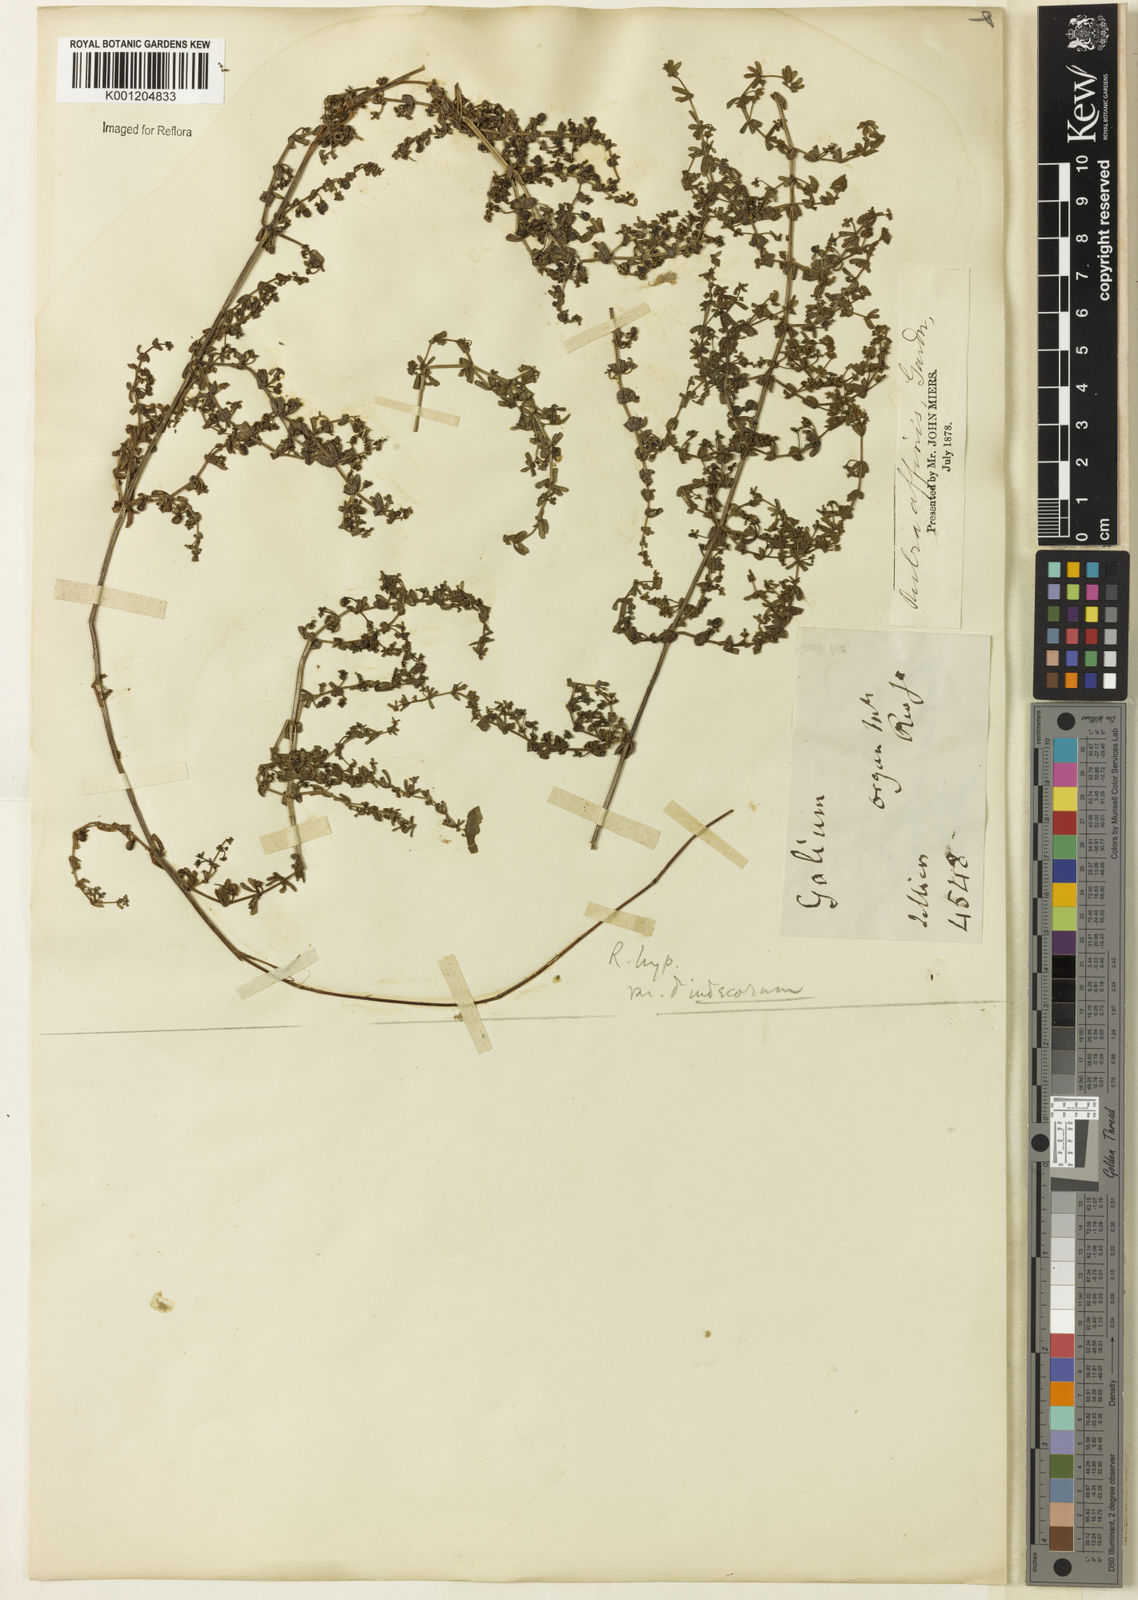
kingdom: Plantae
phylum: Tracheophyta
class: Magnoliopsida
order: Gentianales
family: Rubiaceae
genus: Galium
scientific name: Galium hypocarpium
